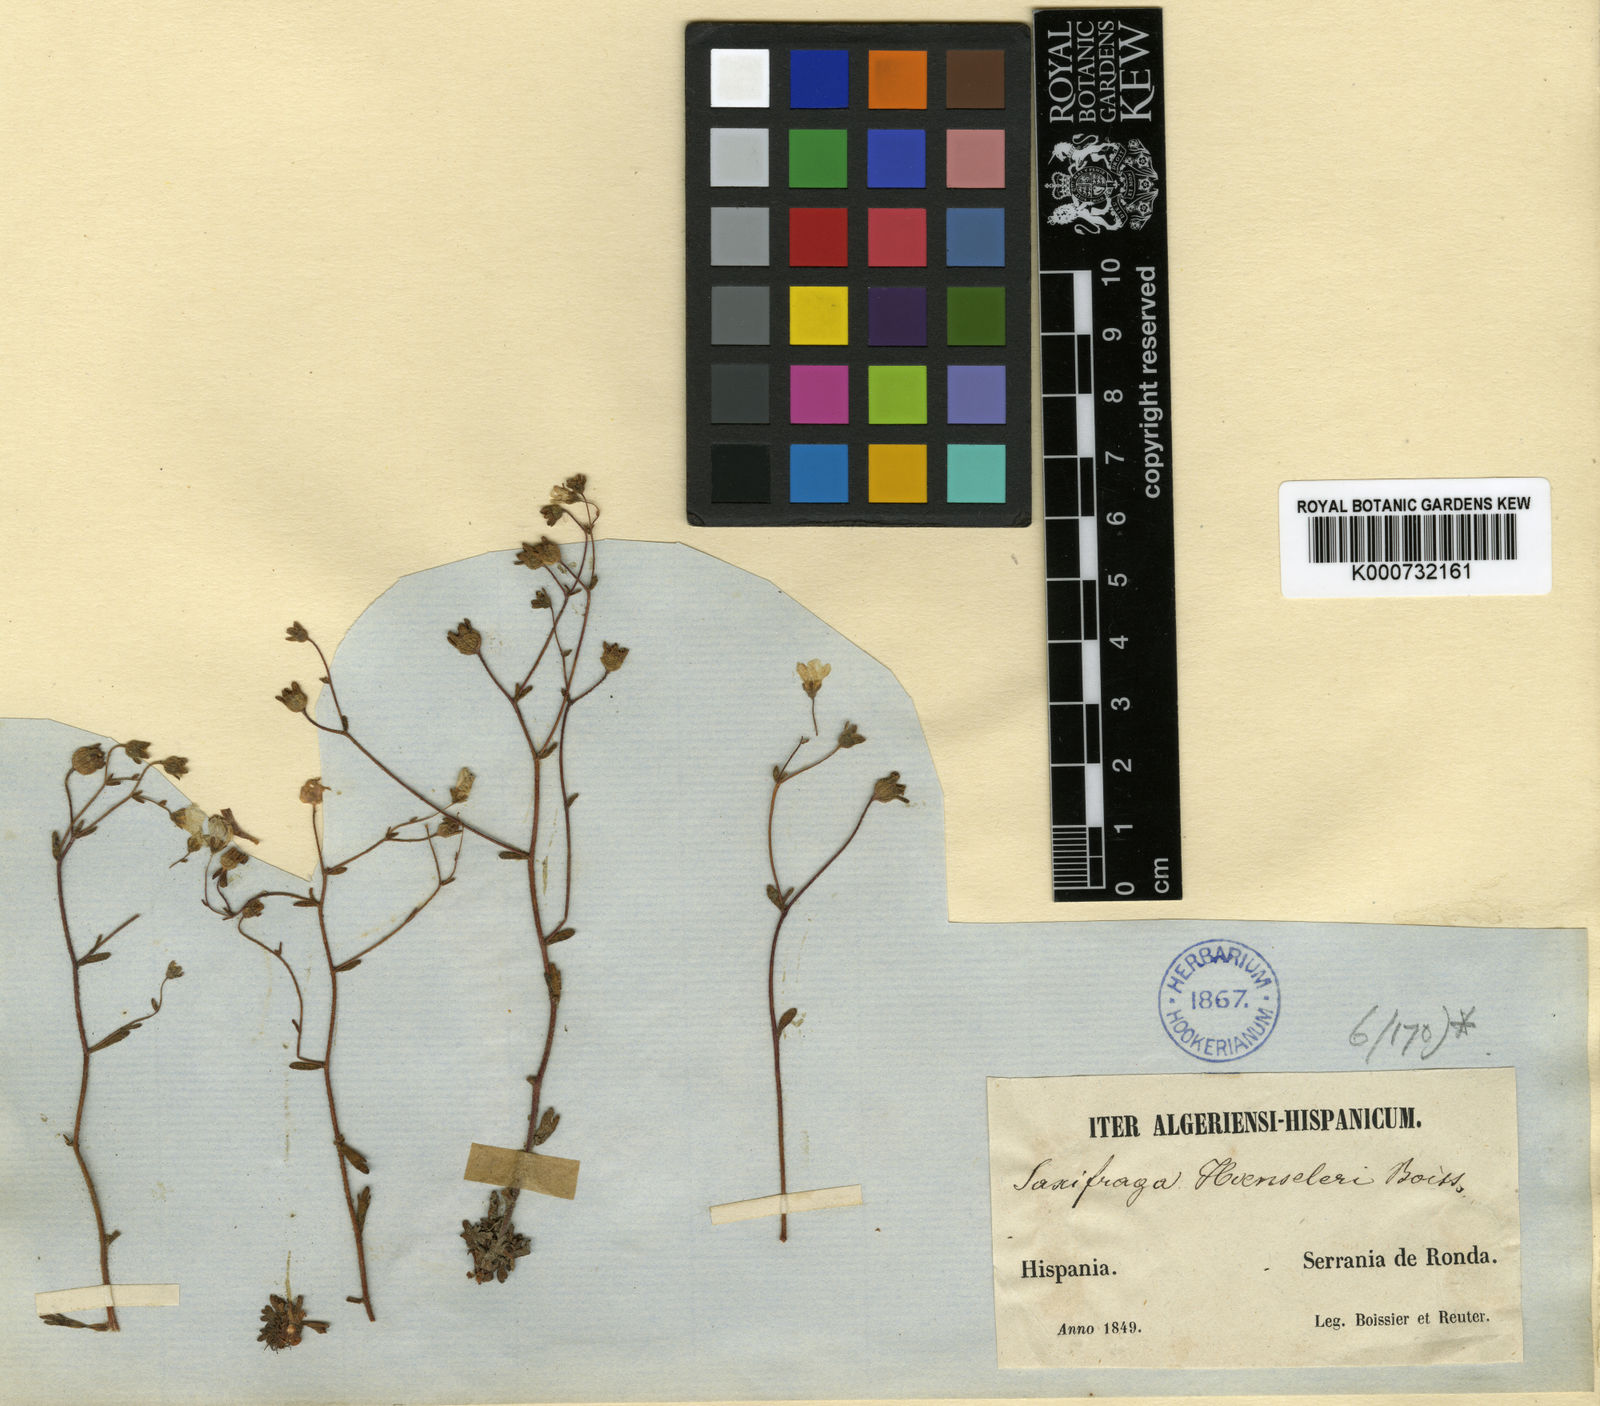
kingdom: Plantae
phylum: Tracheophyta
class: Magnoliopsida
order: Saxifragales
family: Saxifragaceae
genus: Saxifraga
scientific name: Saxifraga haenseleri
